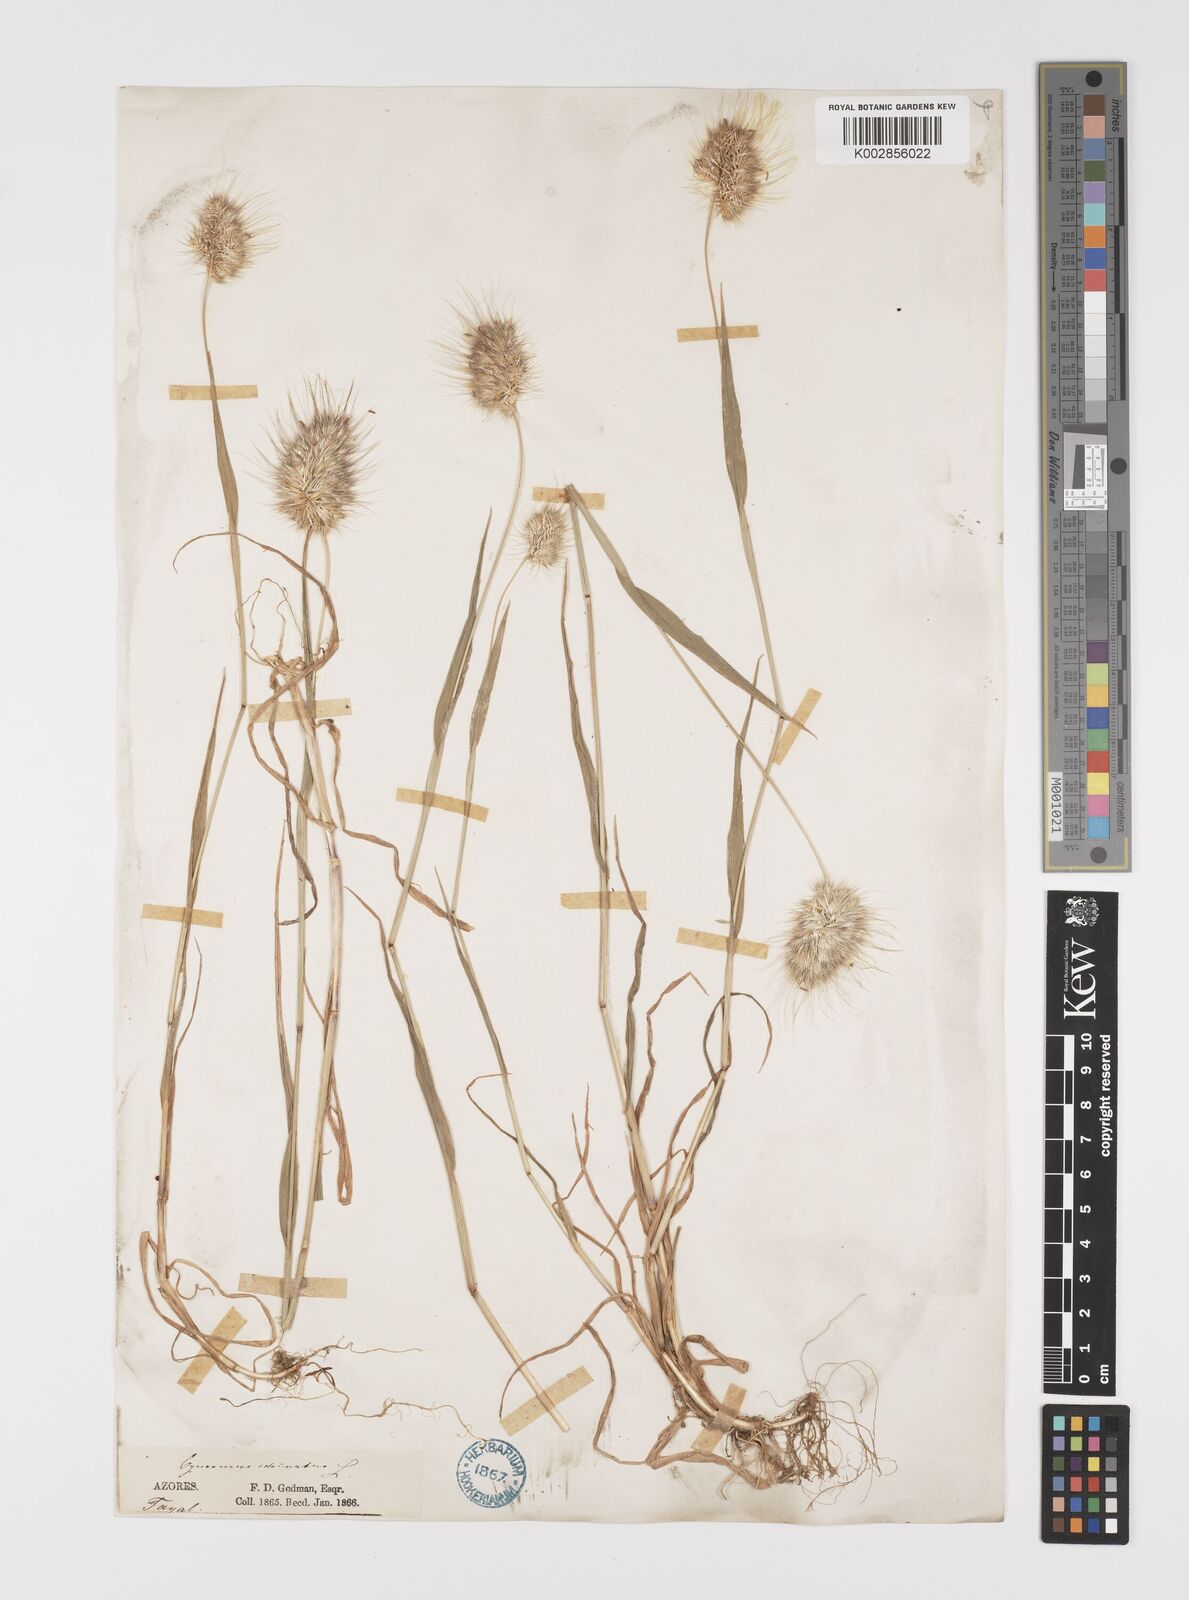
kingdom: Plantae
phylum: Tracheophyta
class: Liliopsida
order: Poales
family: Poaceae
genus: Cynosurus
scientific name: Cynosurus echinatus
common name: Rough dog's-tail
